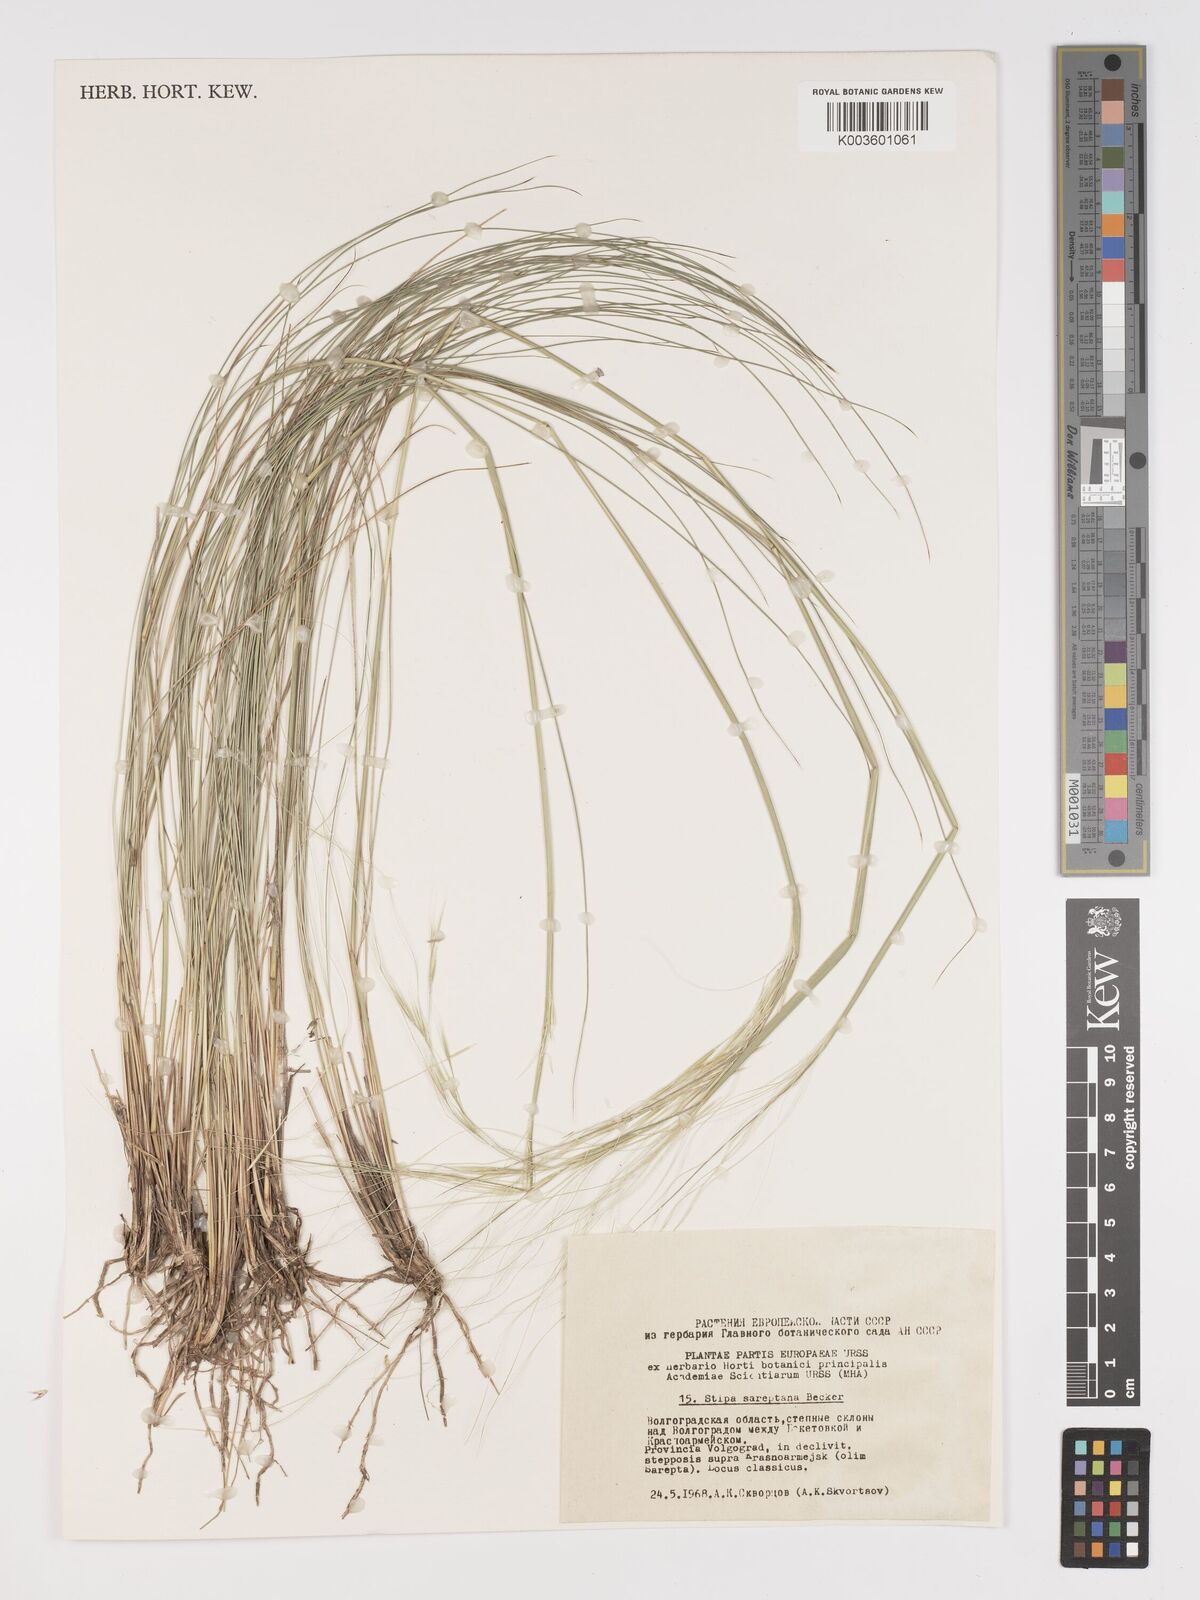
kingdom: Plantae
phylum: Tracheophyta
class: Liliopsida
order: Poales
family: Poaceae
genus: Stipa
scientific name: Stipa sareptana
